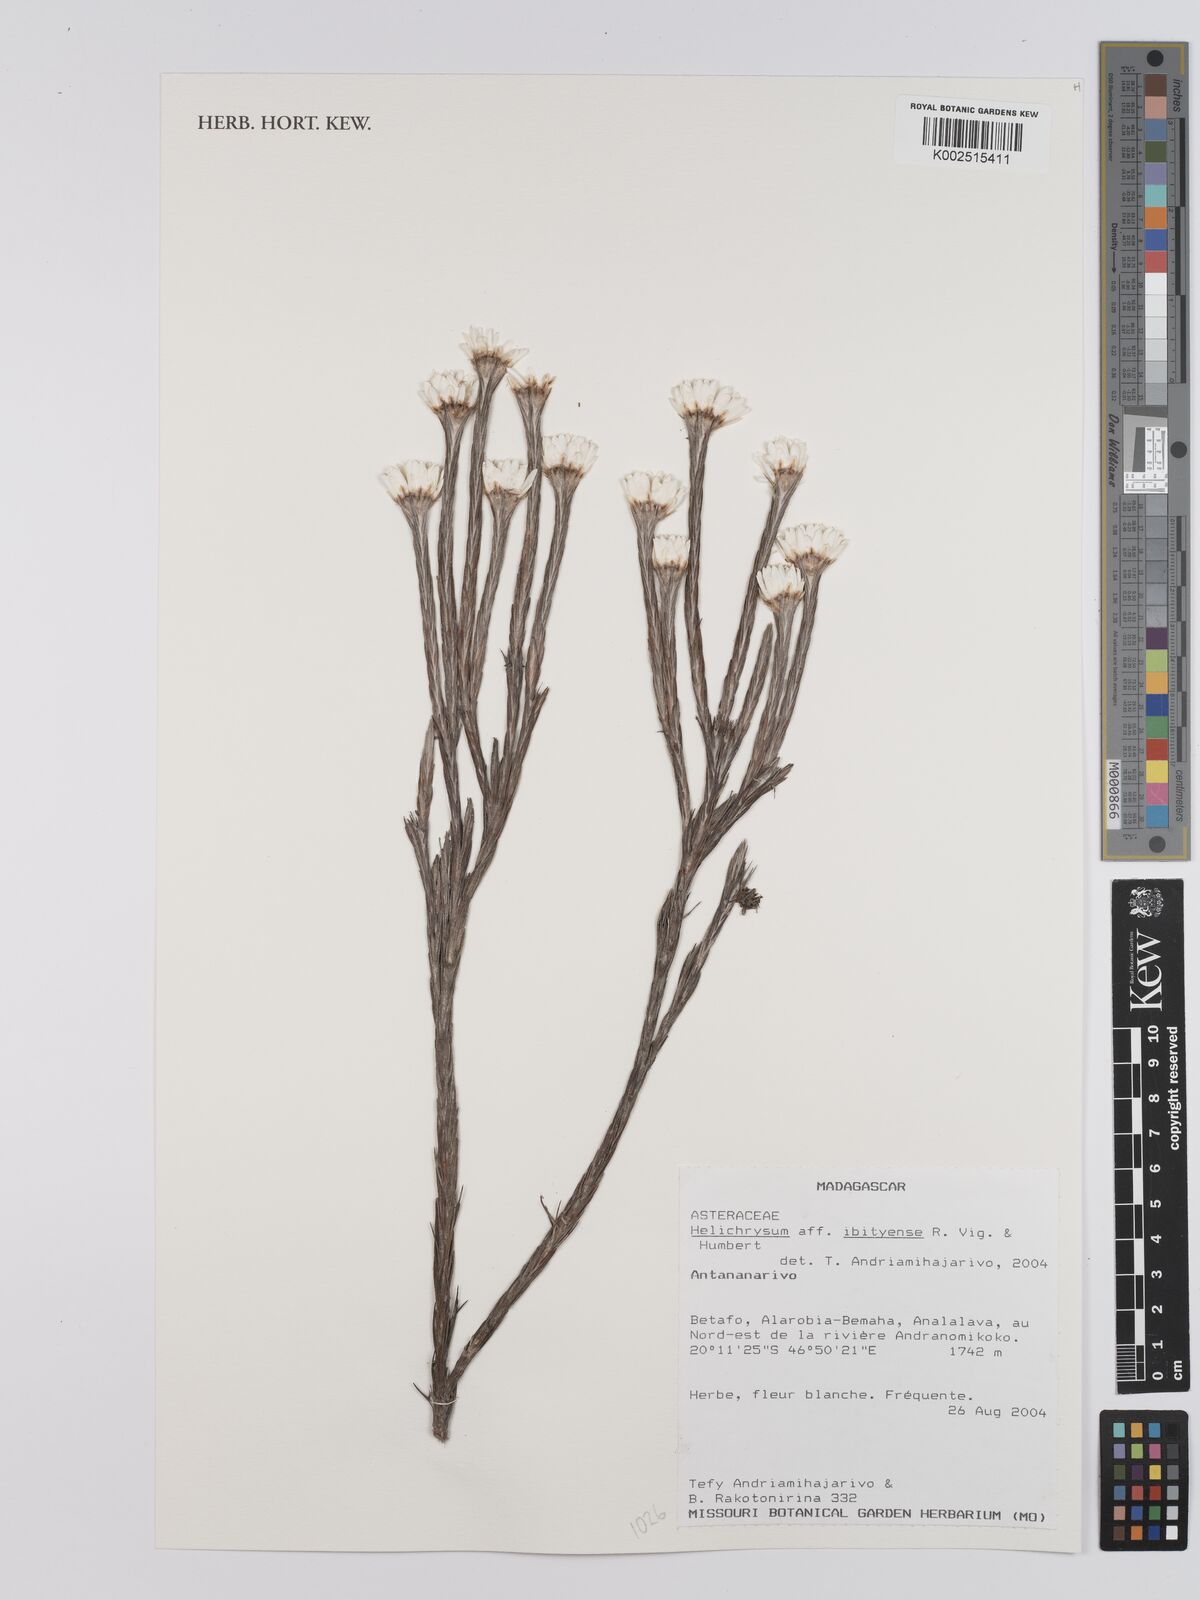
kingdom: Plantae
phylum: Tracheophyta
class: Magnoliopsida
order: Asterales
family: Asteraceae
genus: Helichrysum
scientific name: Helichrysum ibityense
